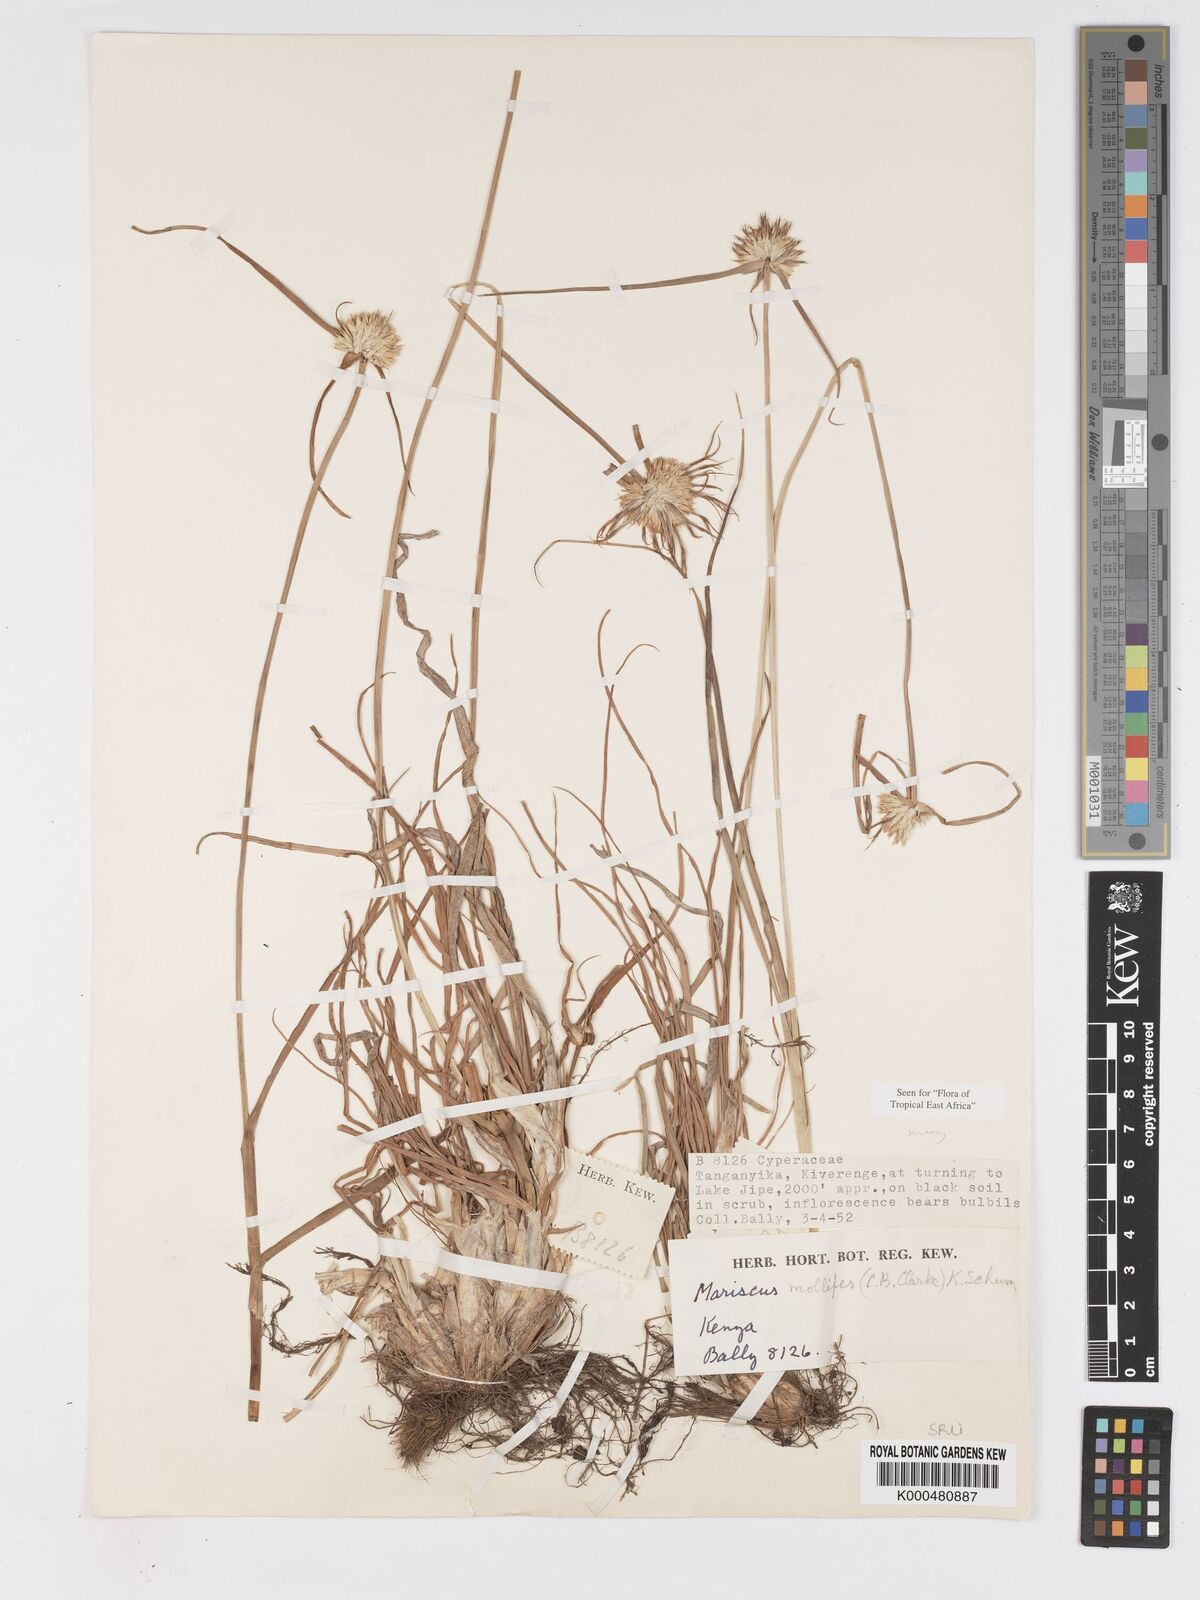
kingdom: Plantae
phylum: Tracheophyta
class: Liliopsida
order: Poales
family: Cyperaceae
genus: Cyperus
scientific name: Cyperus mollipes
